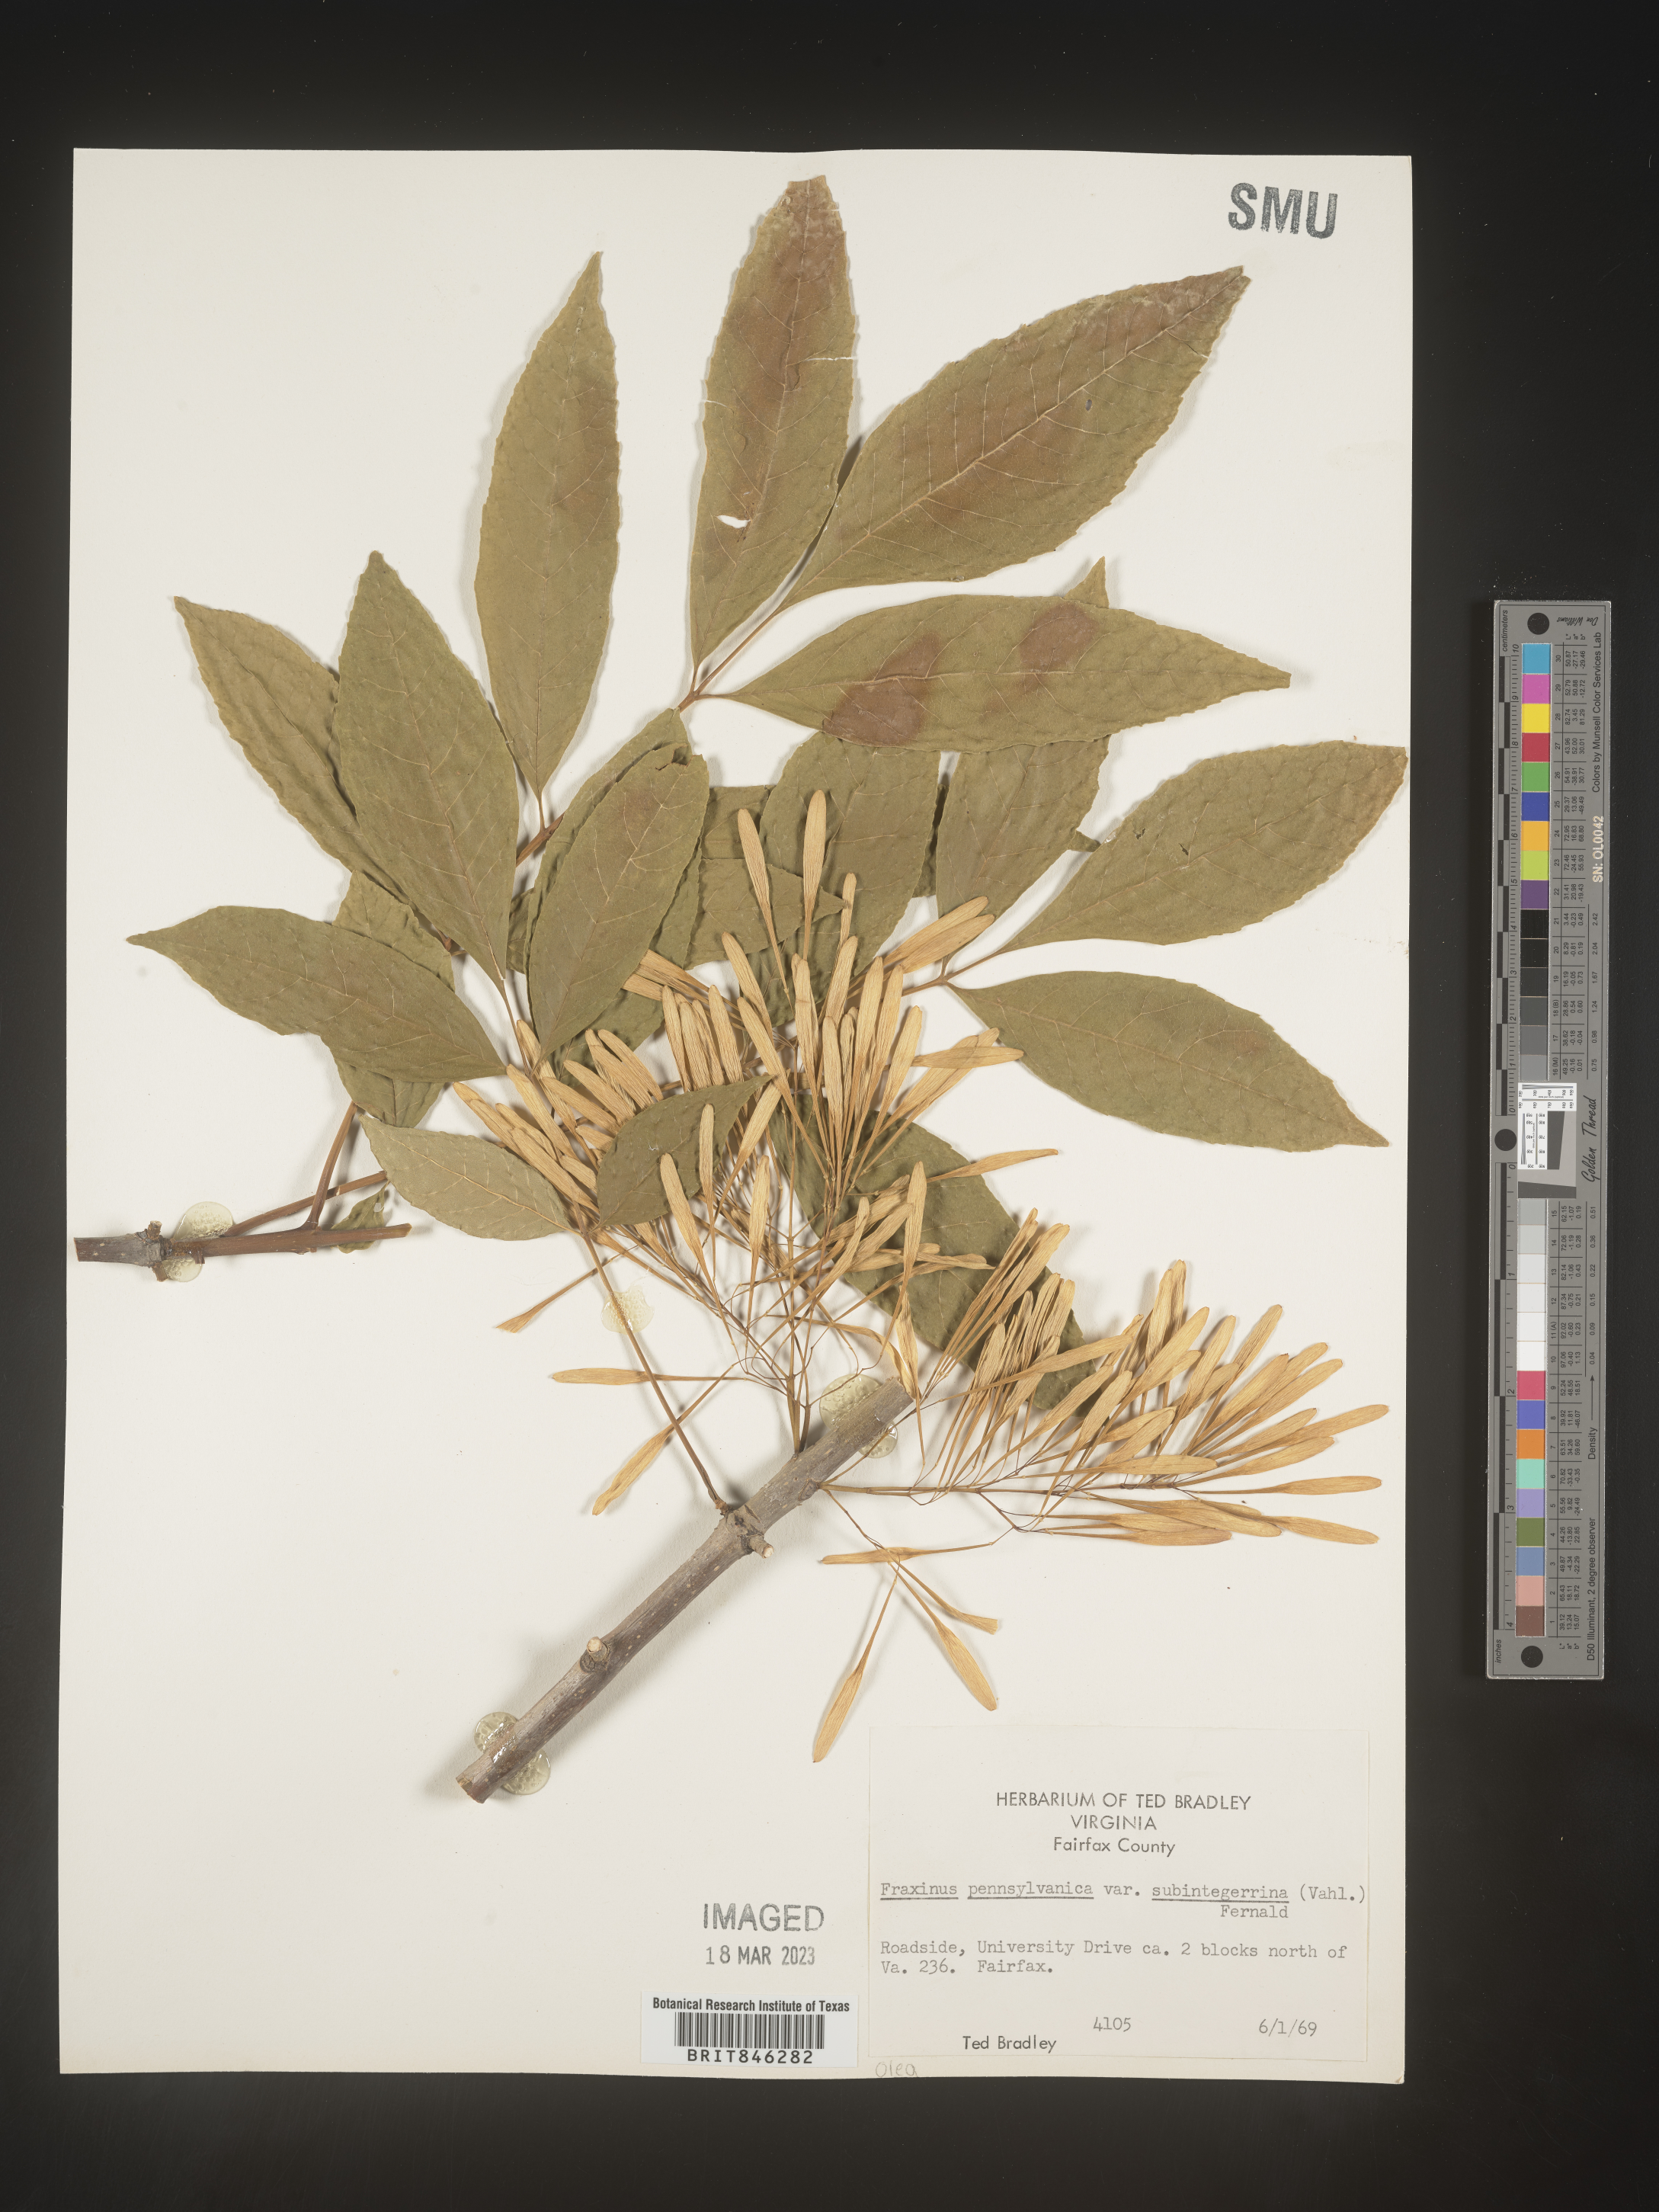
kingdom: Plantae
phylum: Tracheophyta
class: Magnoliopsida
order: Lamiales
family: Oleaceae
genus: Fraxinus
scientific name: Fraxinus pennsylvanica
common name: Green ash
